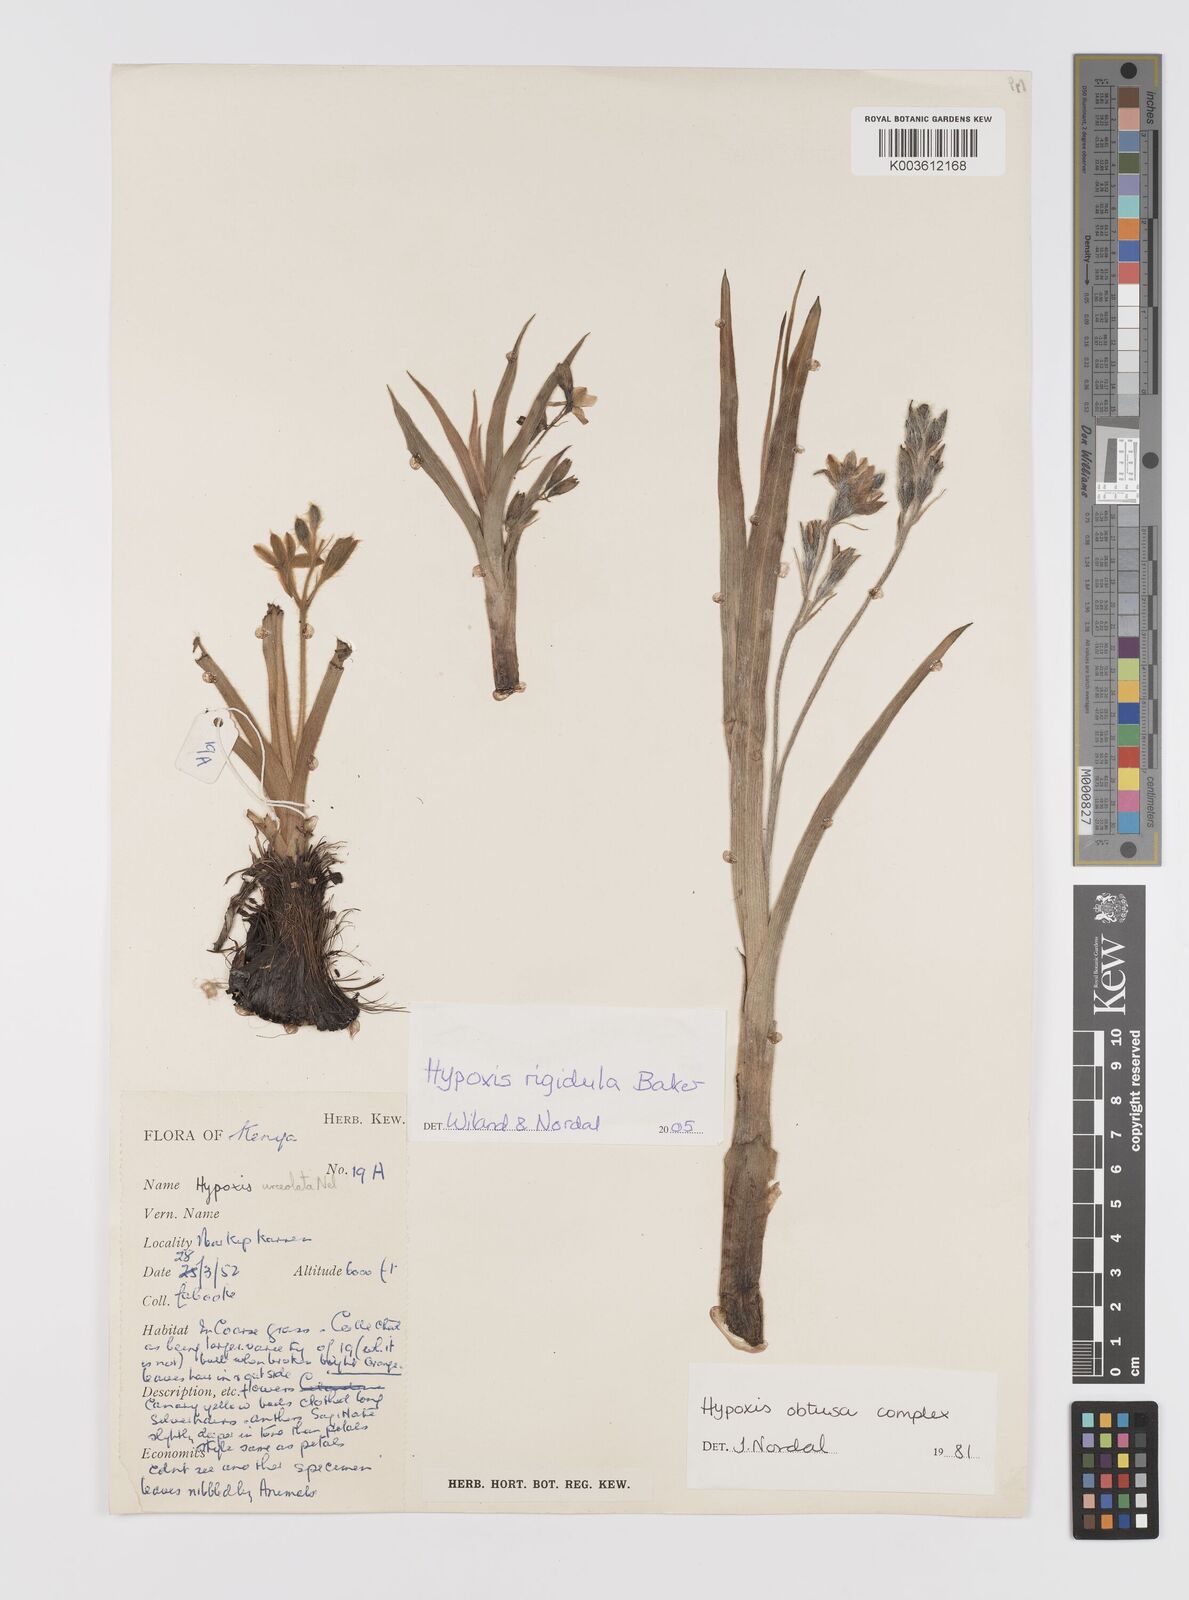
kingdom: Plantae
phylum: Tracheophyta
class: Liliopsida
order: Asparagales
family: Hypoxidaceae
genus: Hypoxis
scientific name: Hypoxis rigidula
